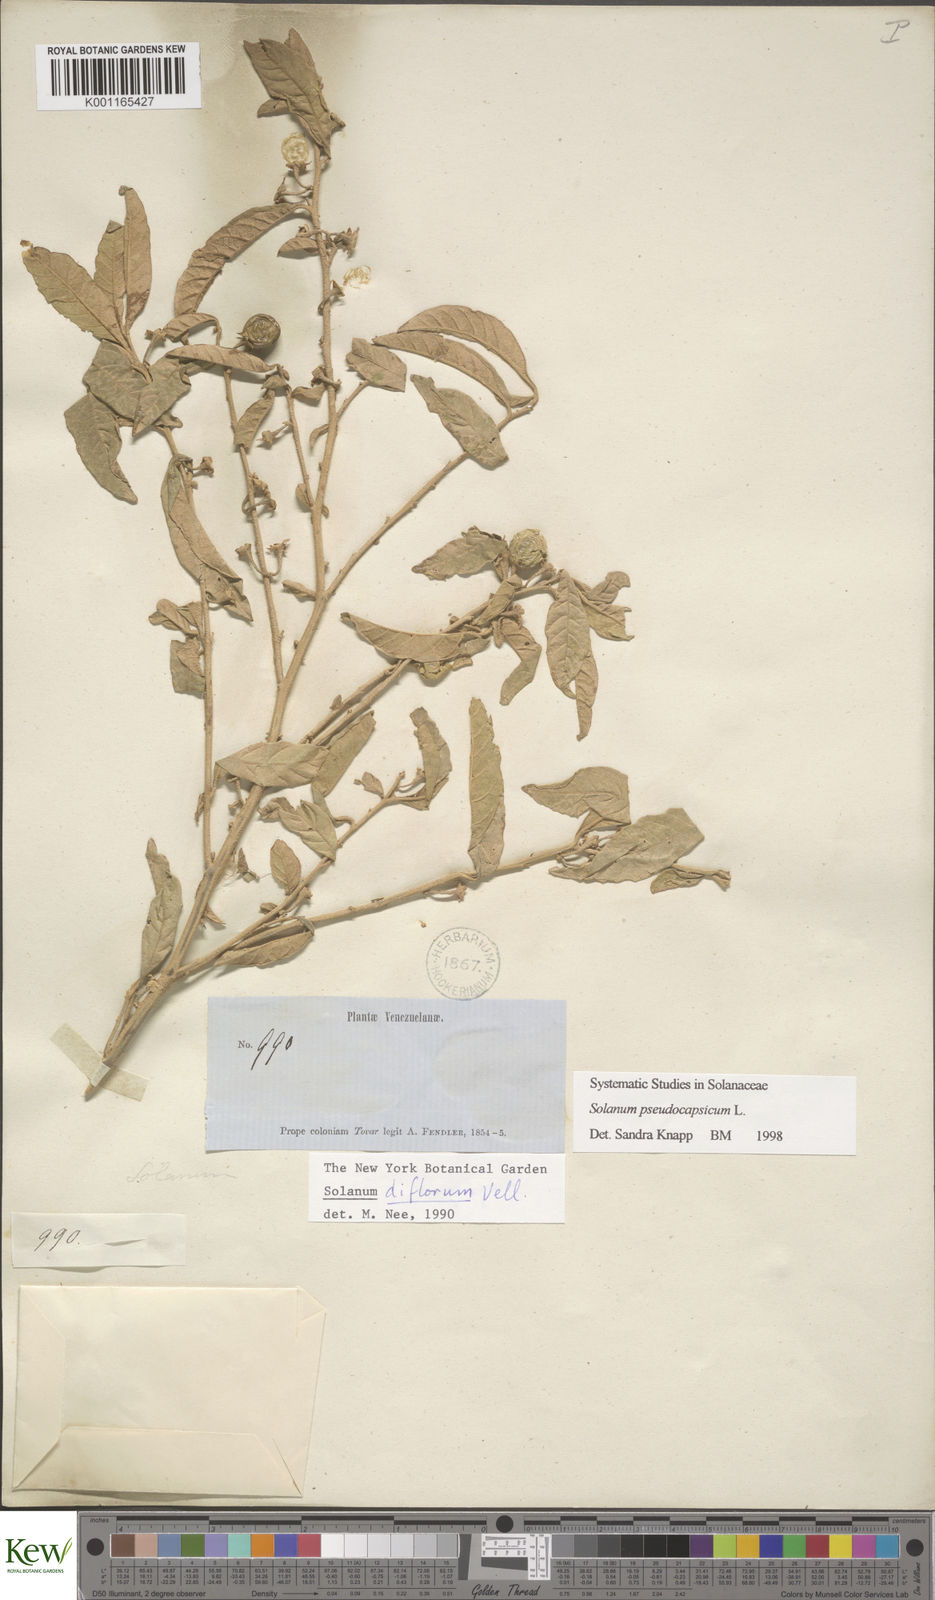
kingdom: Plantae
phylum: Tracheophyta
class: Magnoliopsida
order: Solanales
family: Solanaceae
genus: Solanum
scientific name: Solanum pseudocapsicum
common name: Jerusalem cherry
